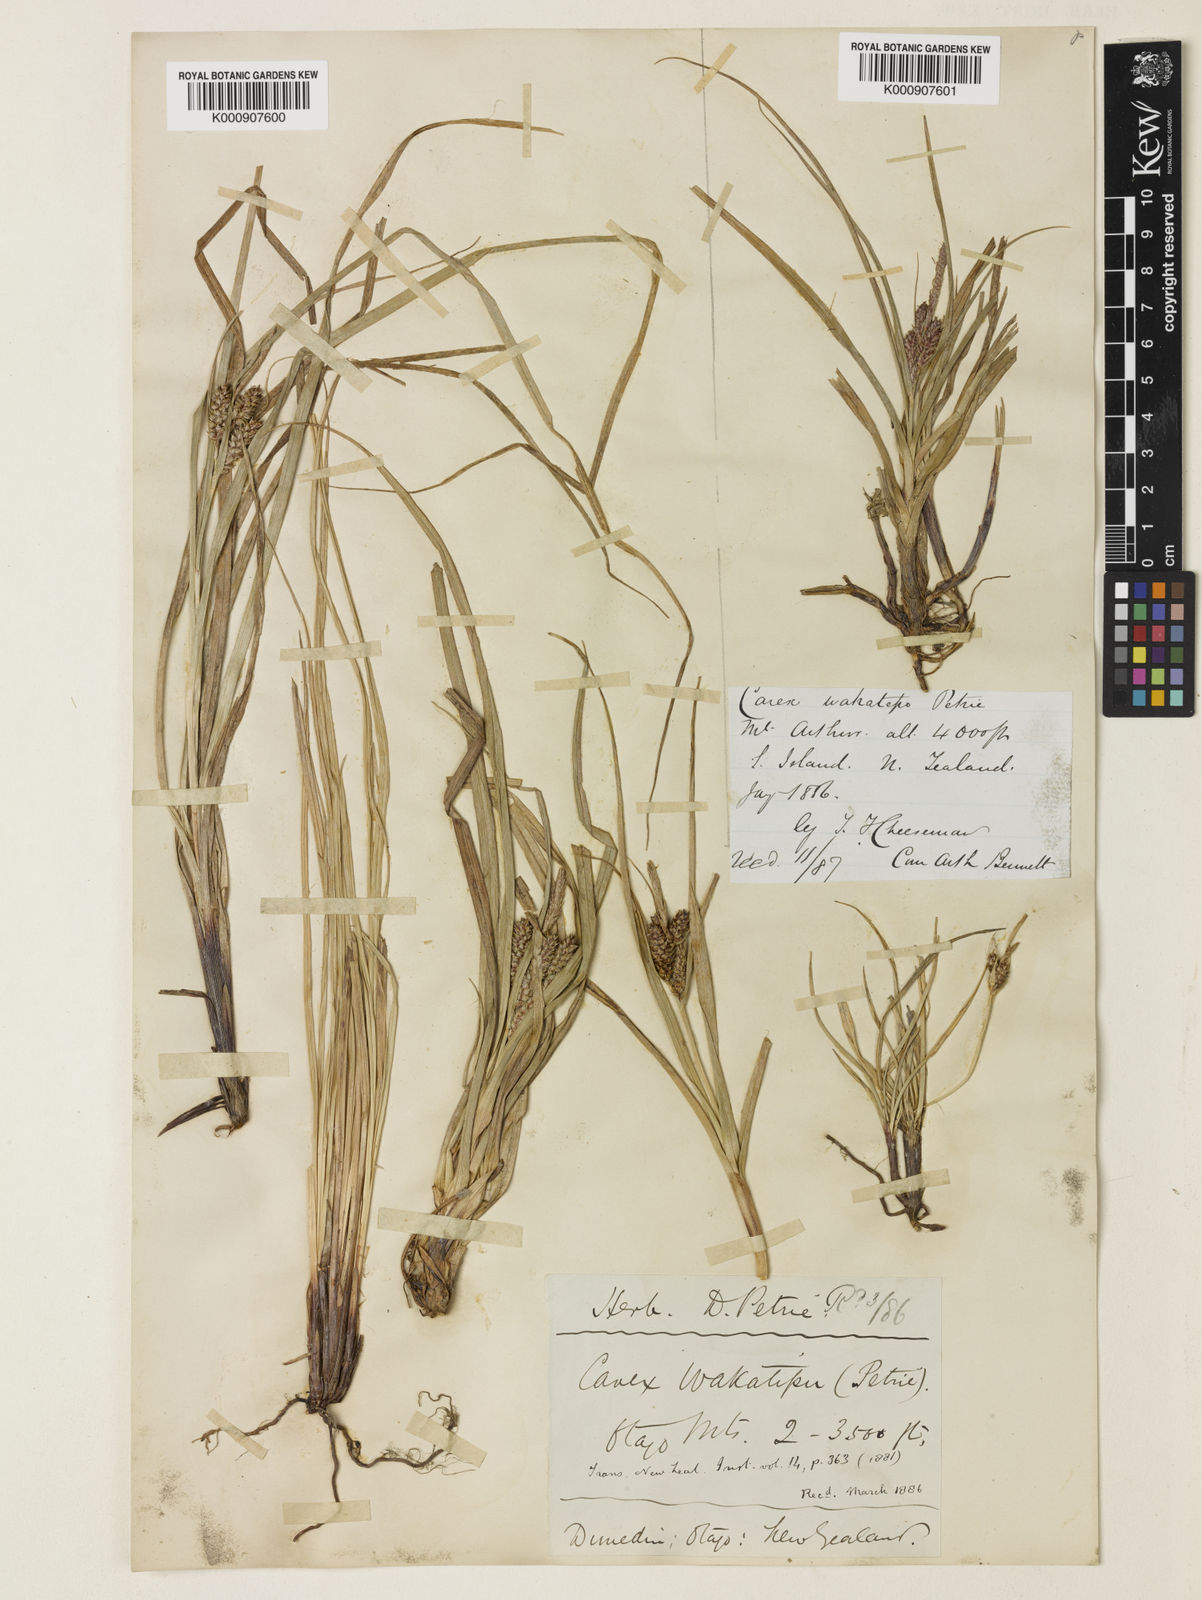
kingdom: Plantae
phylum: Tracheophyta
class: Liliopsida
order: Poales
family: Cyperaceae
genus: Carex
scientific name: Carex wakatipu
